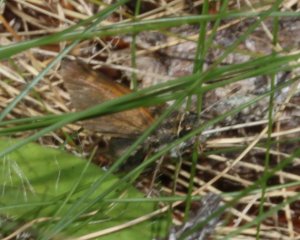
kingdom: Animalia
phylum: Arthropoda
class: Insecta
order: Lepidoptera
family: Hesperiidae
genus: Polites
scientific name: Polites themistocles
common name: Tawny-edged Skipper
